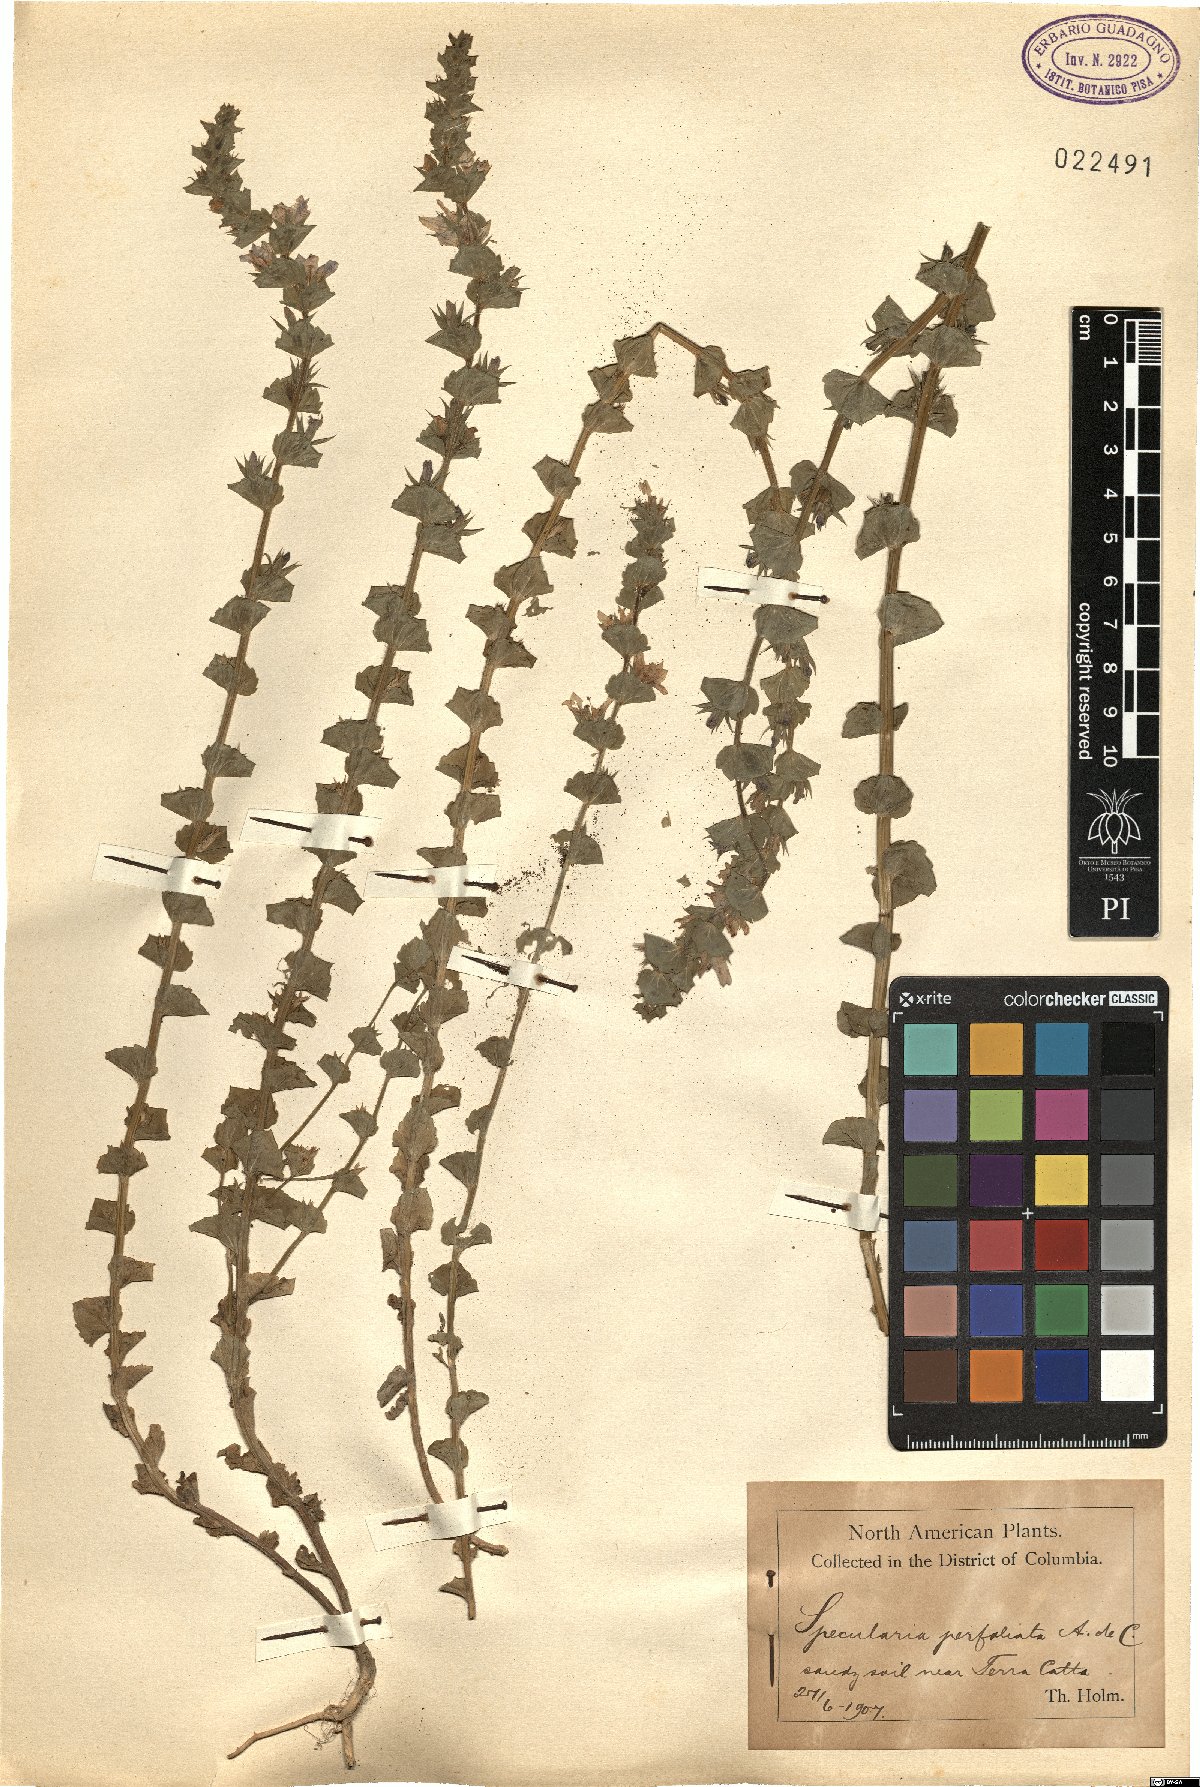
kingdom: Plantae
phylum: Tracheophyta
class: Magnoliopsida
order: Asterales
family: Campanulaceae
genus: Triodanis
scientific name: Triodanis perfoliata
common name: Clasping venus' looking-glass
